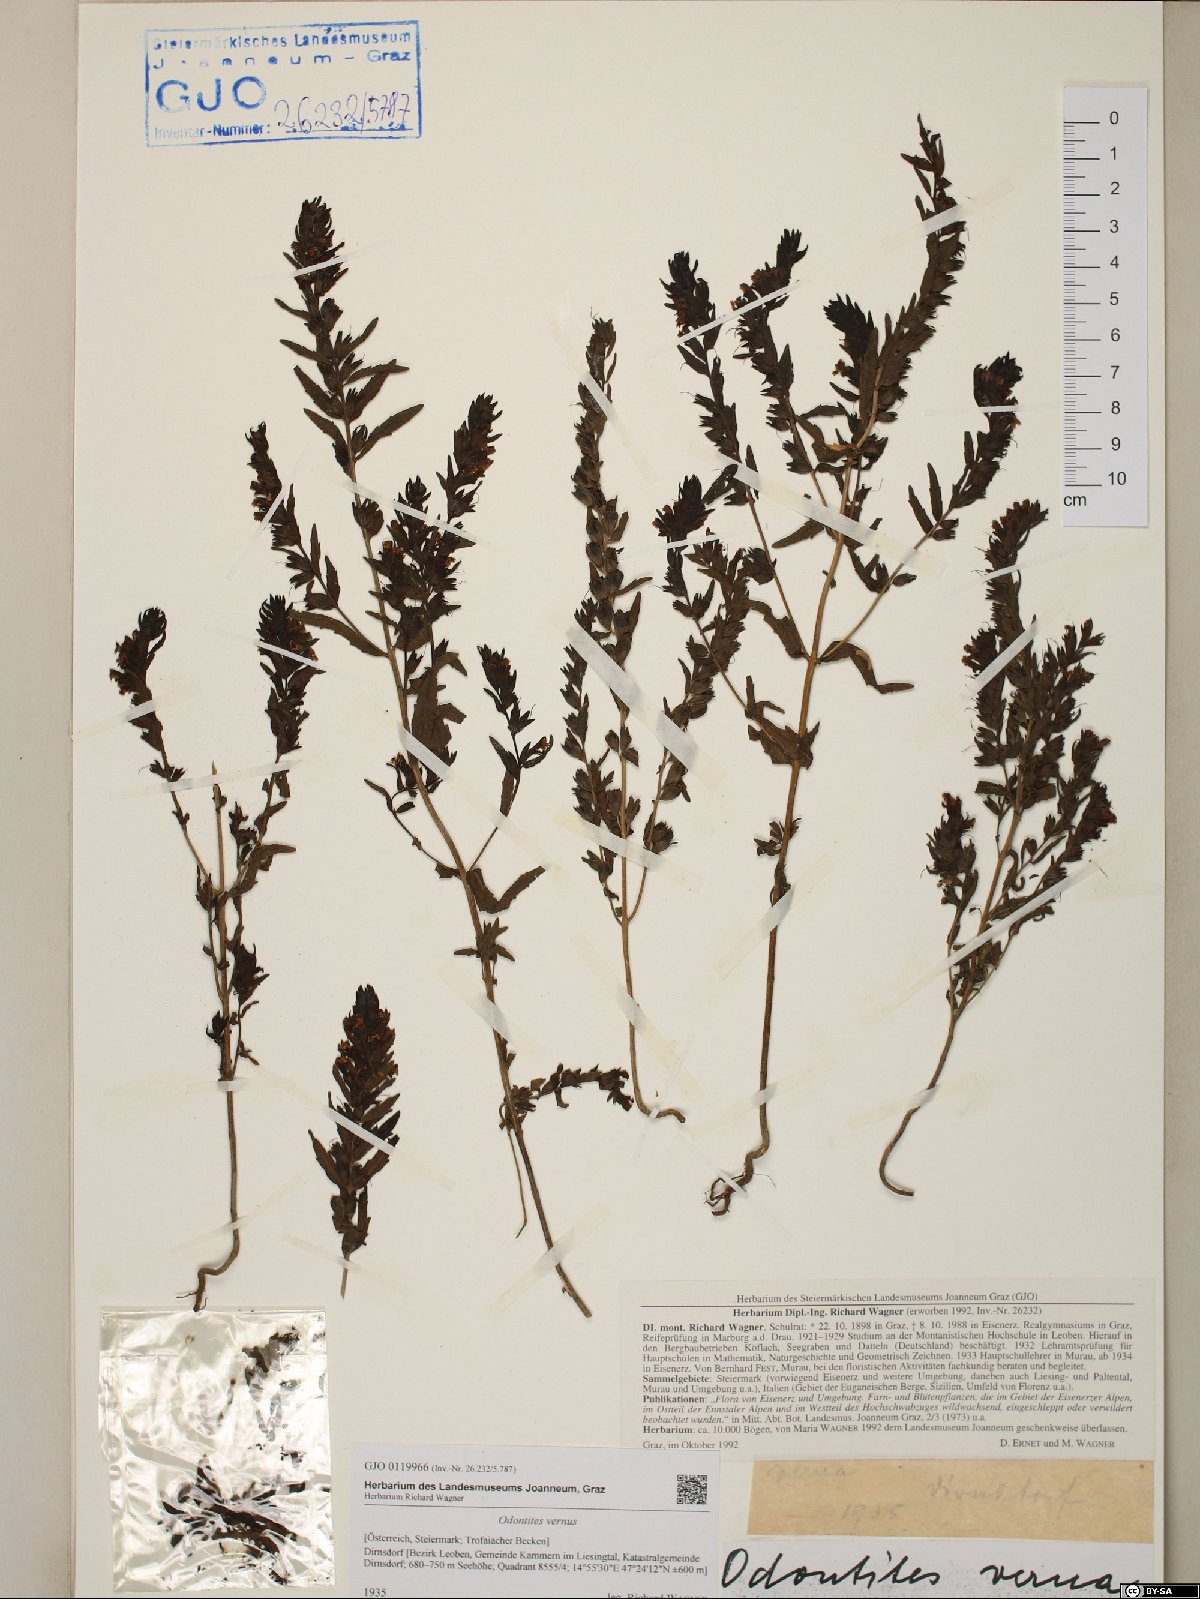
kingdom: Plantae
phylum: Tracheophyta
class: Magnoliopsida
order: Lamiales
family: Orobanchaceae
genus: Odontites
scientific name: Odontites vernus
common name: Red bartsia
